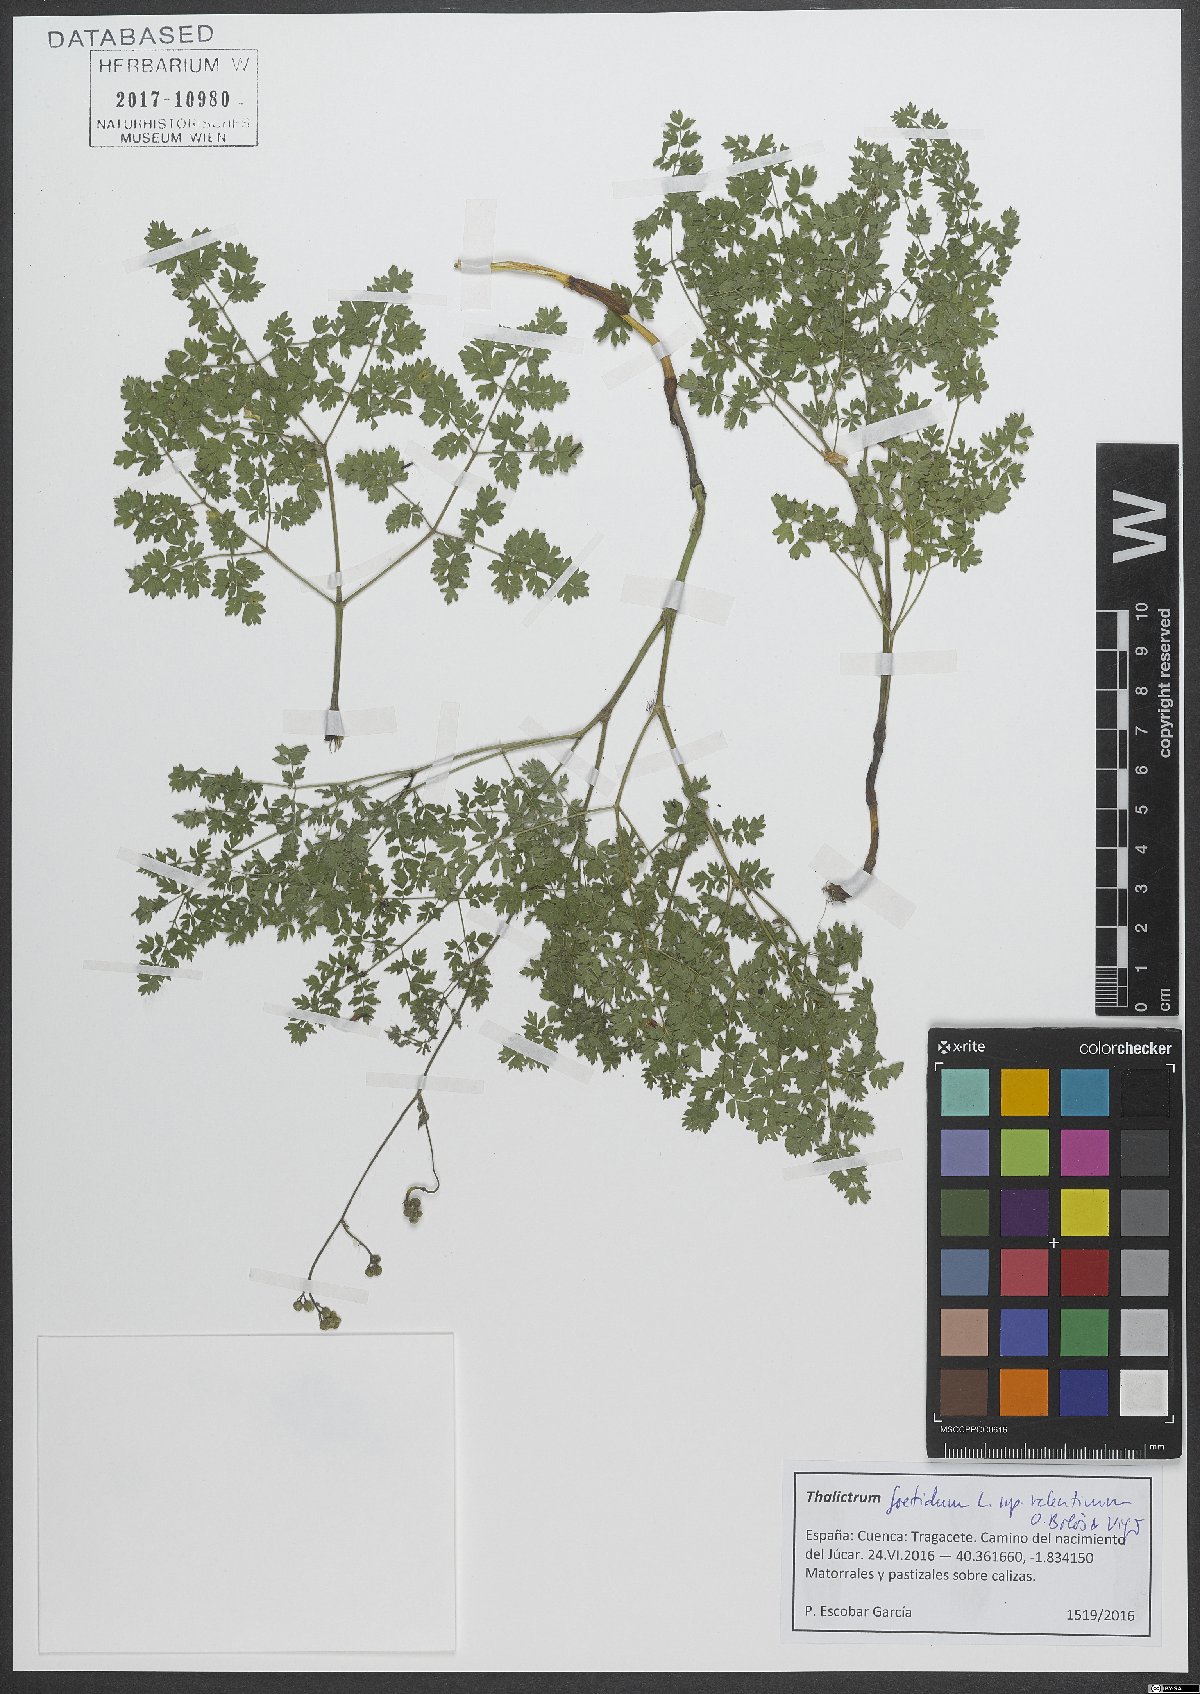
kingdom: Plantae
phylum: Tracheophyta
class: Magnoliopsida
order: Ranunculales
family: Ranunculaceae
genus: Thalictrum
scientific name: Thalictrum minus
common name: Lesser meadow-rue
